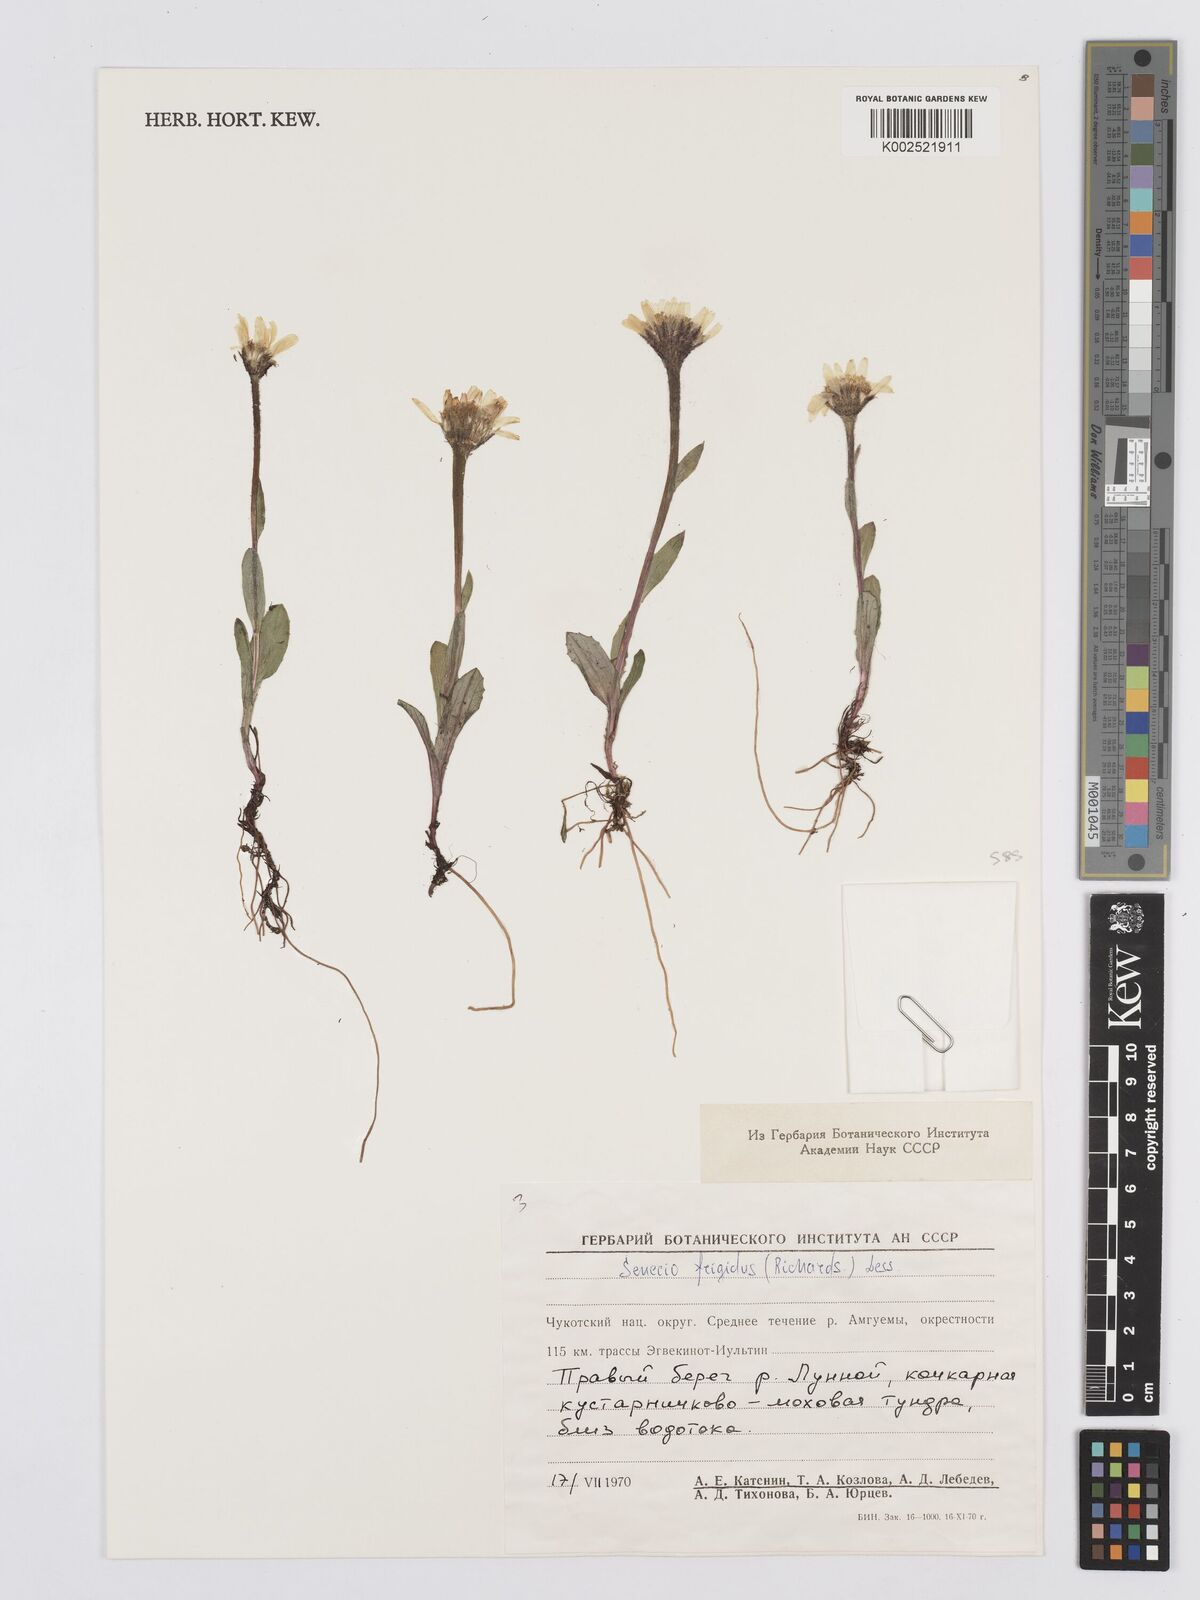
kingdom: Plantae
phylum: Tracheophyta
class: Magnoliopsida
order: Asterales
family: Asteraceae
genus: Tephroseris
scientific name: Tephroseris
